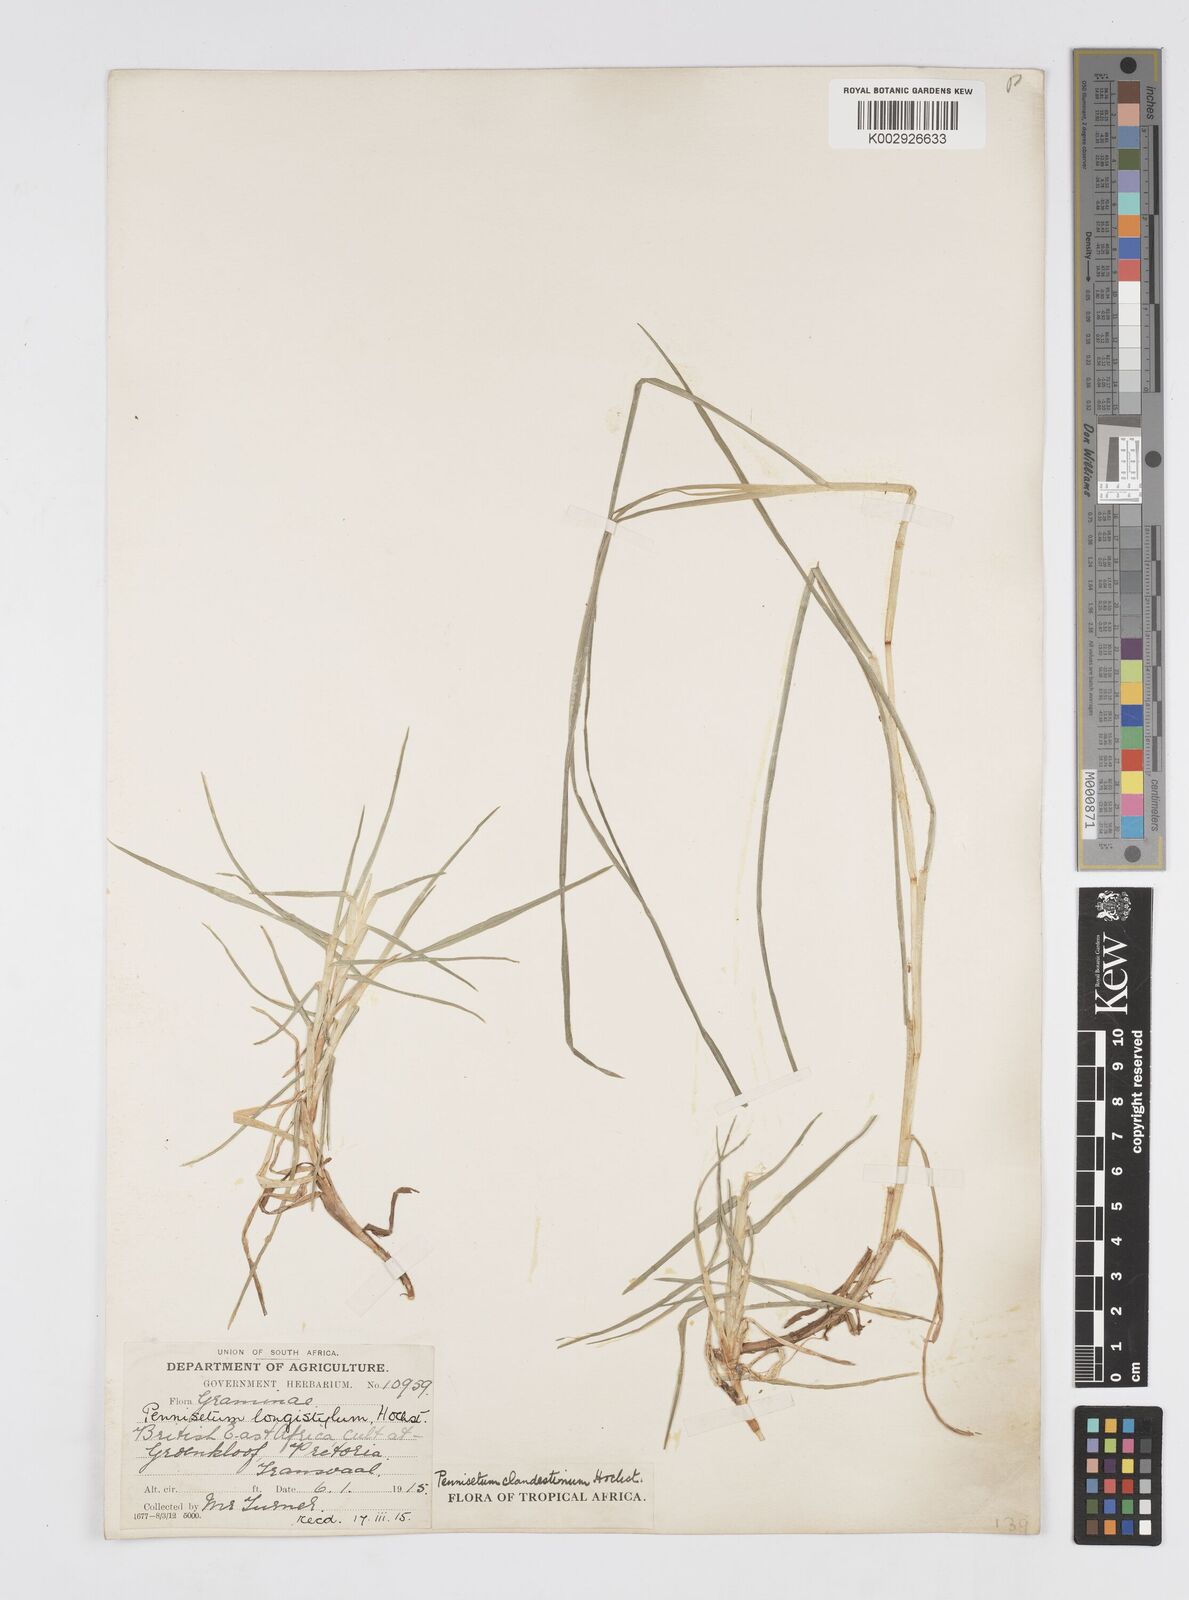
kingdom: Plantae
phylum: Tracheophyta
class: Liliopsida
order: Poales
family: Poaceae
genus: Cenchrus
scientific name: Cenchrus clandestinus
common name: Kikuyugrass
